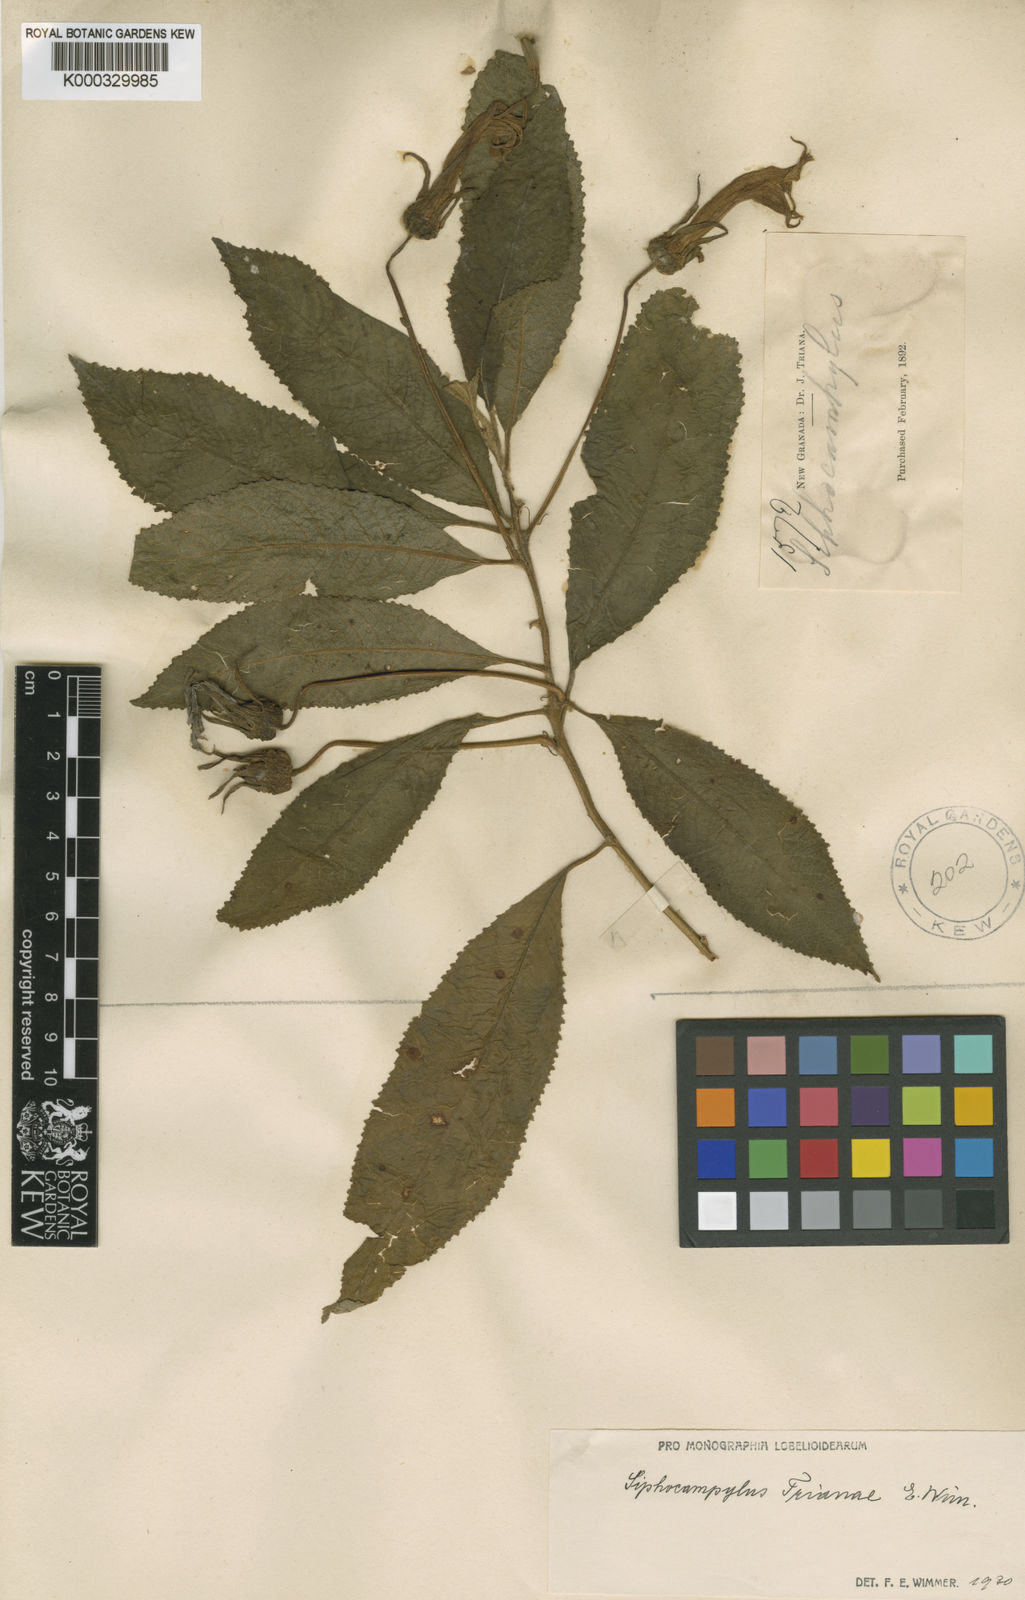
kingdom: Plantae
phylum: Tracheophyta
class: Magnoliopsida
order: Asterales
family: Campanulaceae
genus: Siphocampylus
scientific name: Siphocampylus trianae
